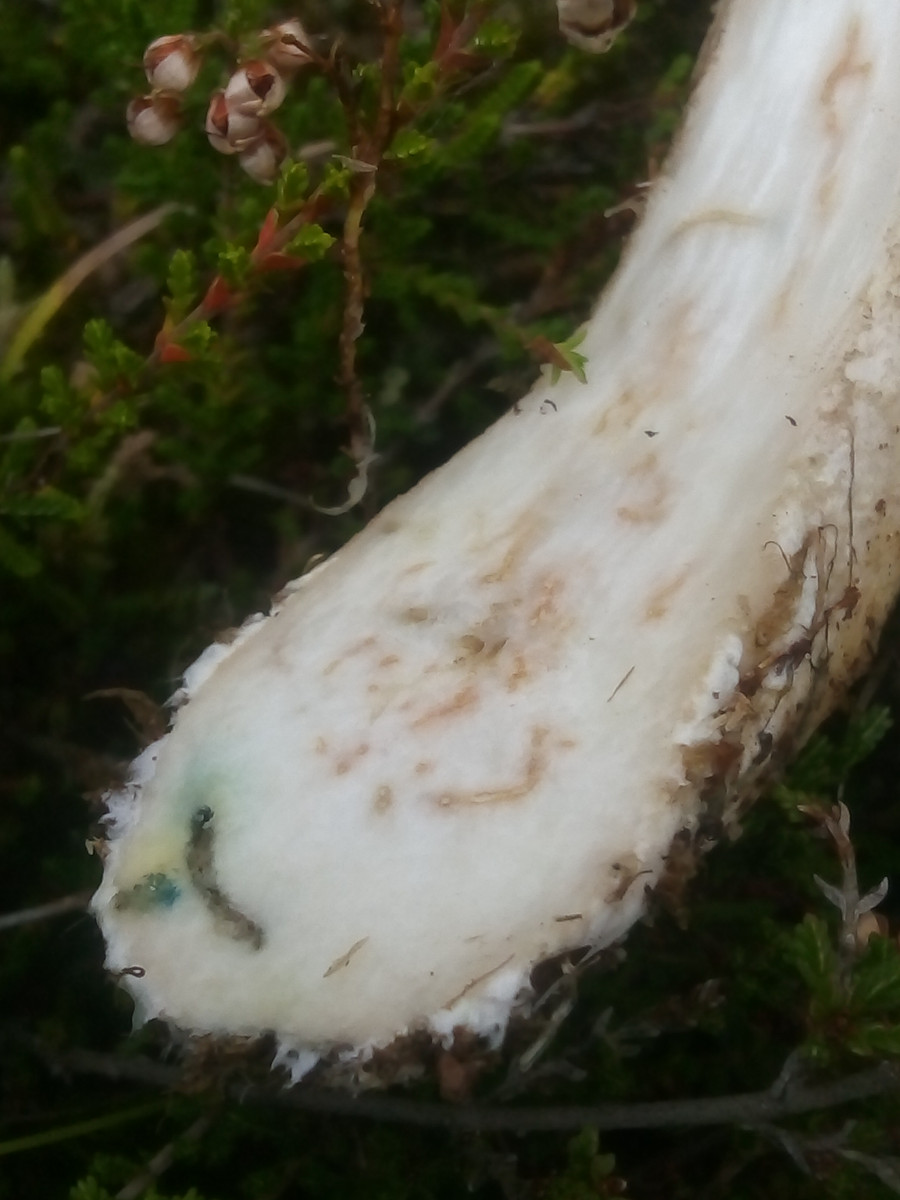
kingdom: Fungi
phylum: Basidiomycota
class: Agaricomycetes
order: Boletales
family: Boletaceae
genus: Leccinum
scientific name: Leccinum cyaneobasileucum
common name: almindelig skælrørhat
